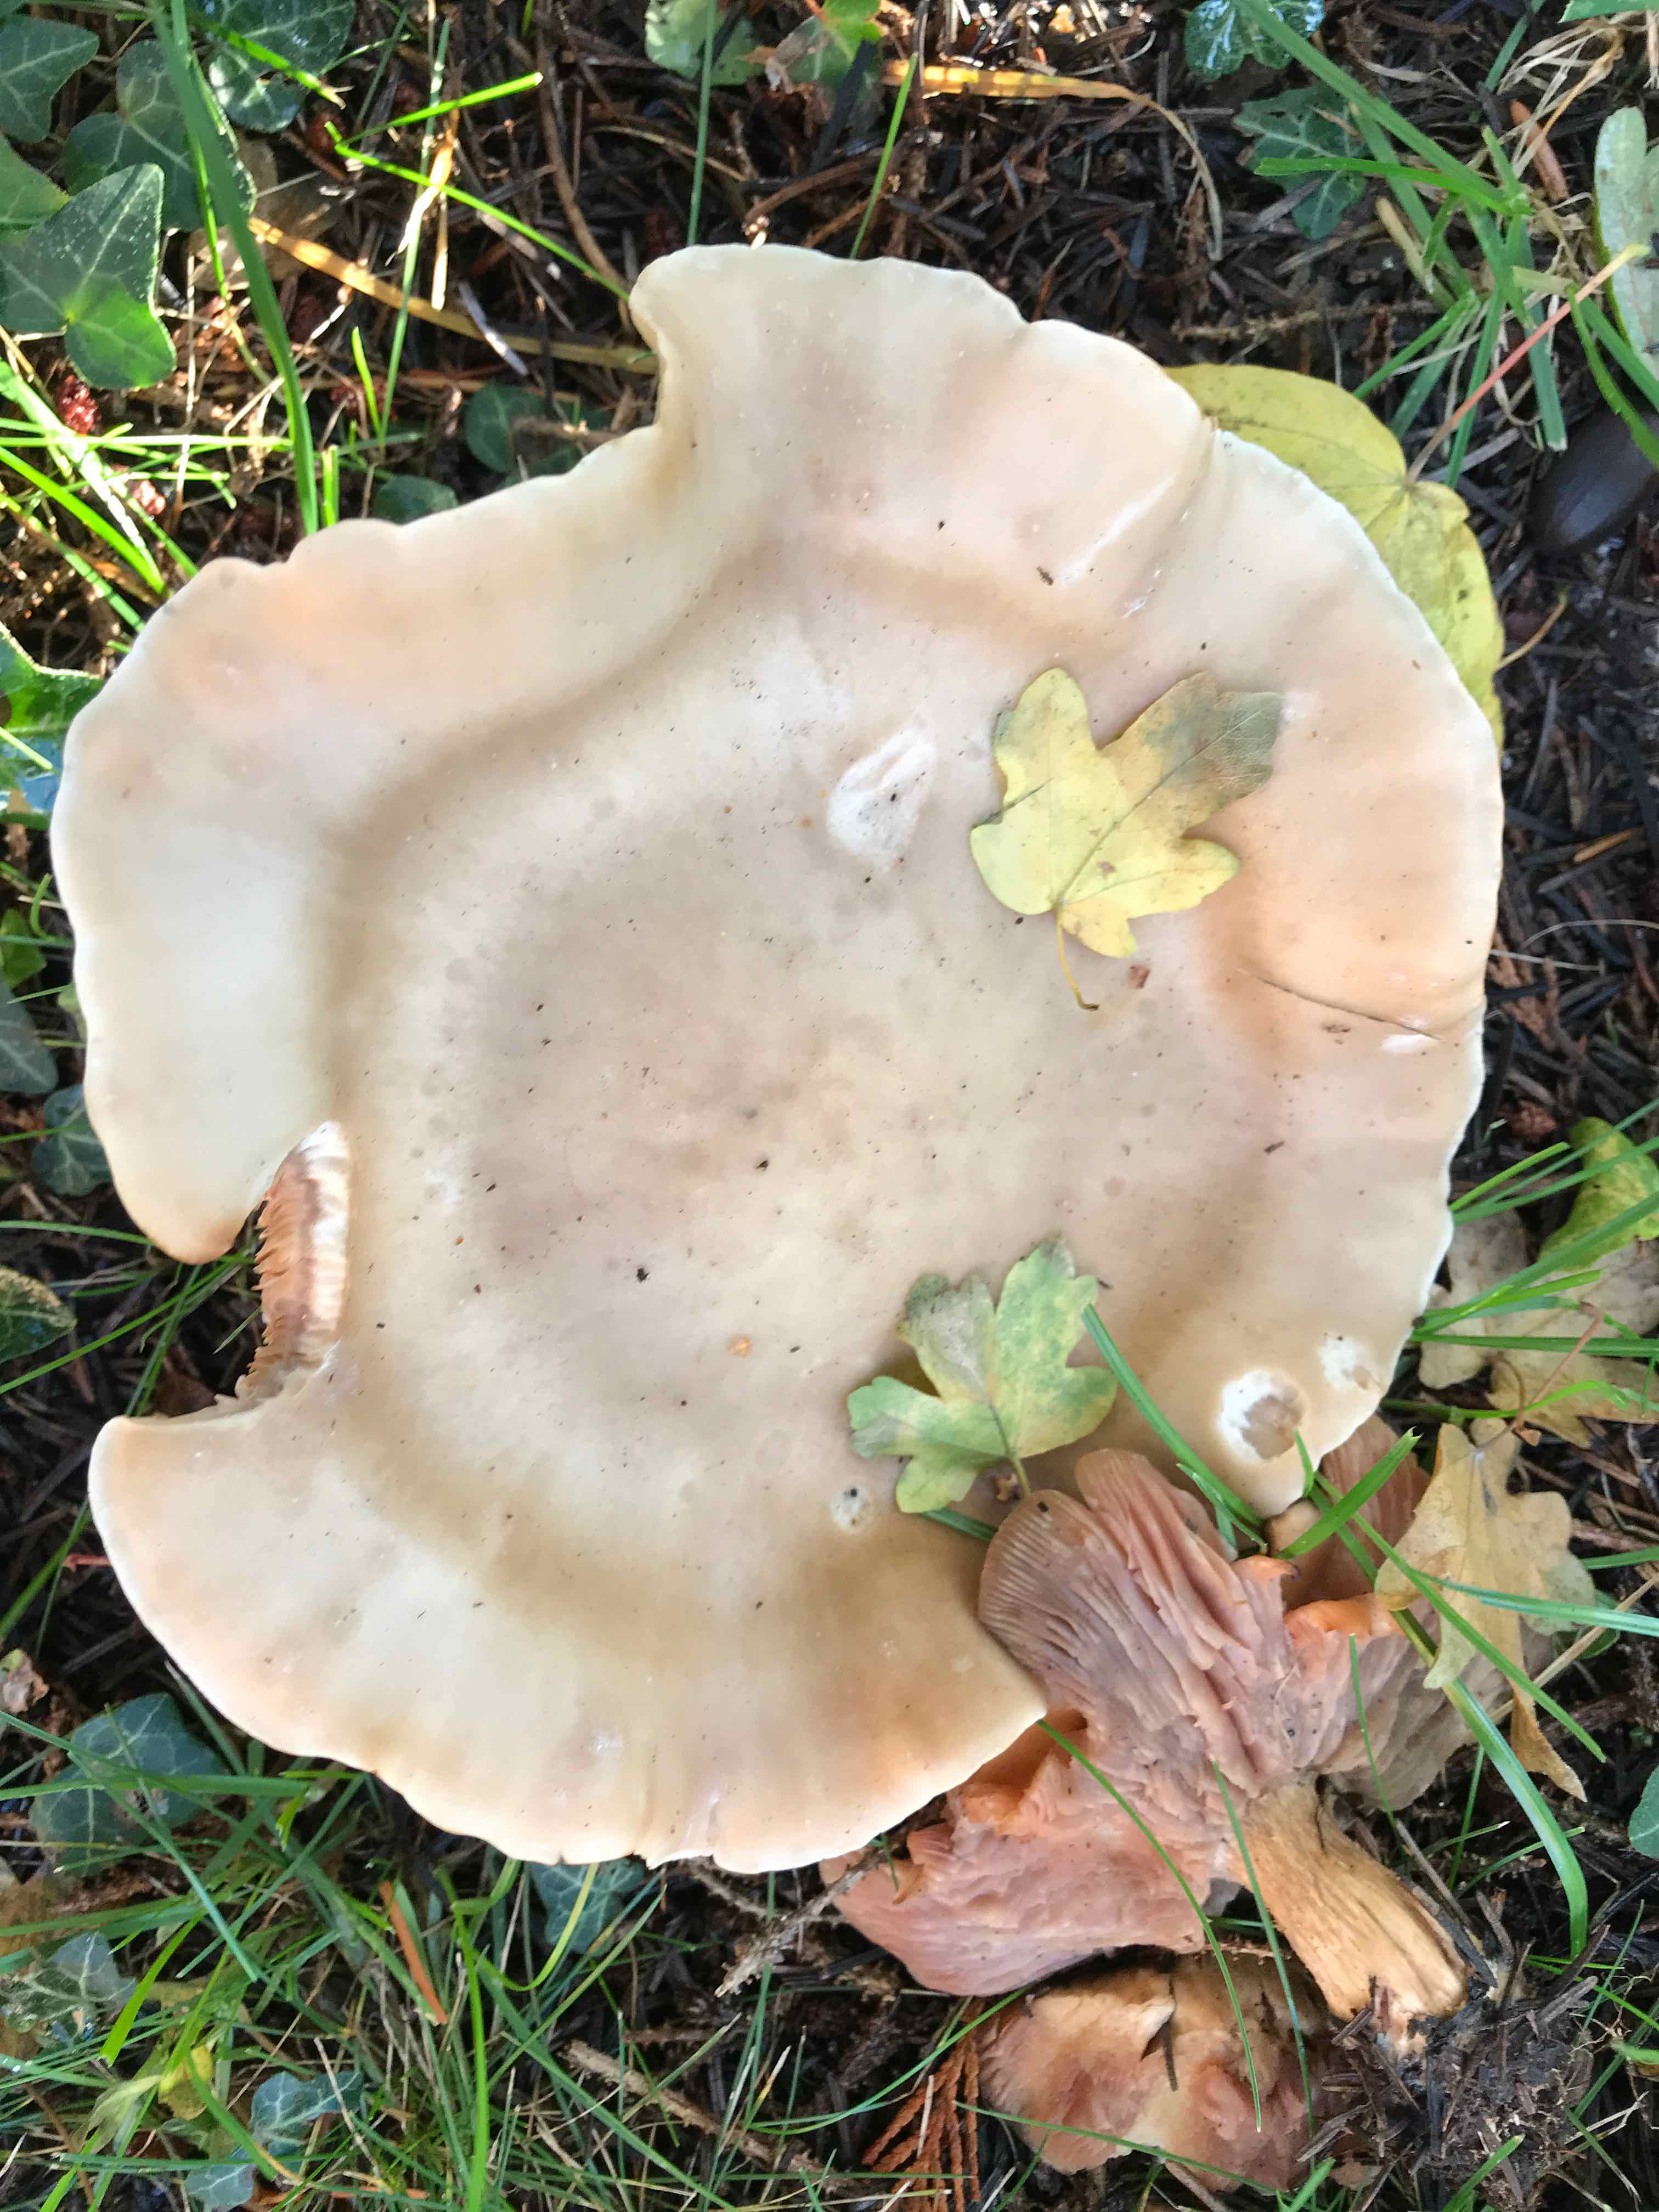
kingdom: Fungi
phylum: Basidiomycota
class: Agaricomycetes
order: Agaricales
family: Tricholomataceae
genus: Lepista
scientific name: Lepista personata
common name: bleg hekseringshat
